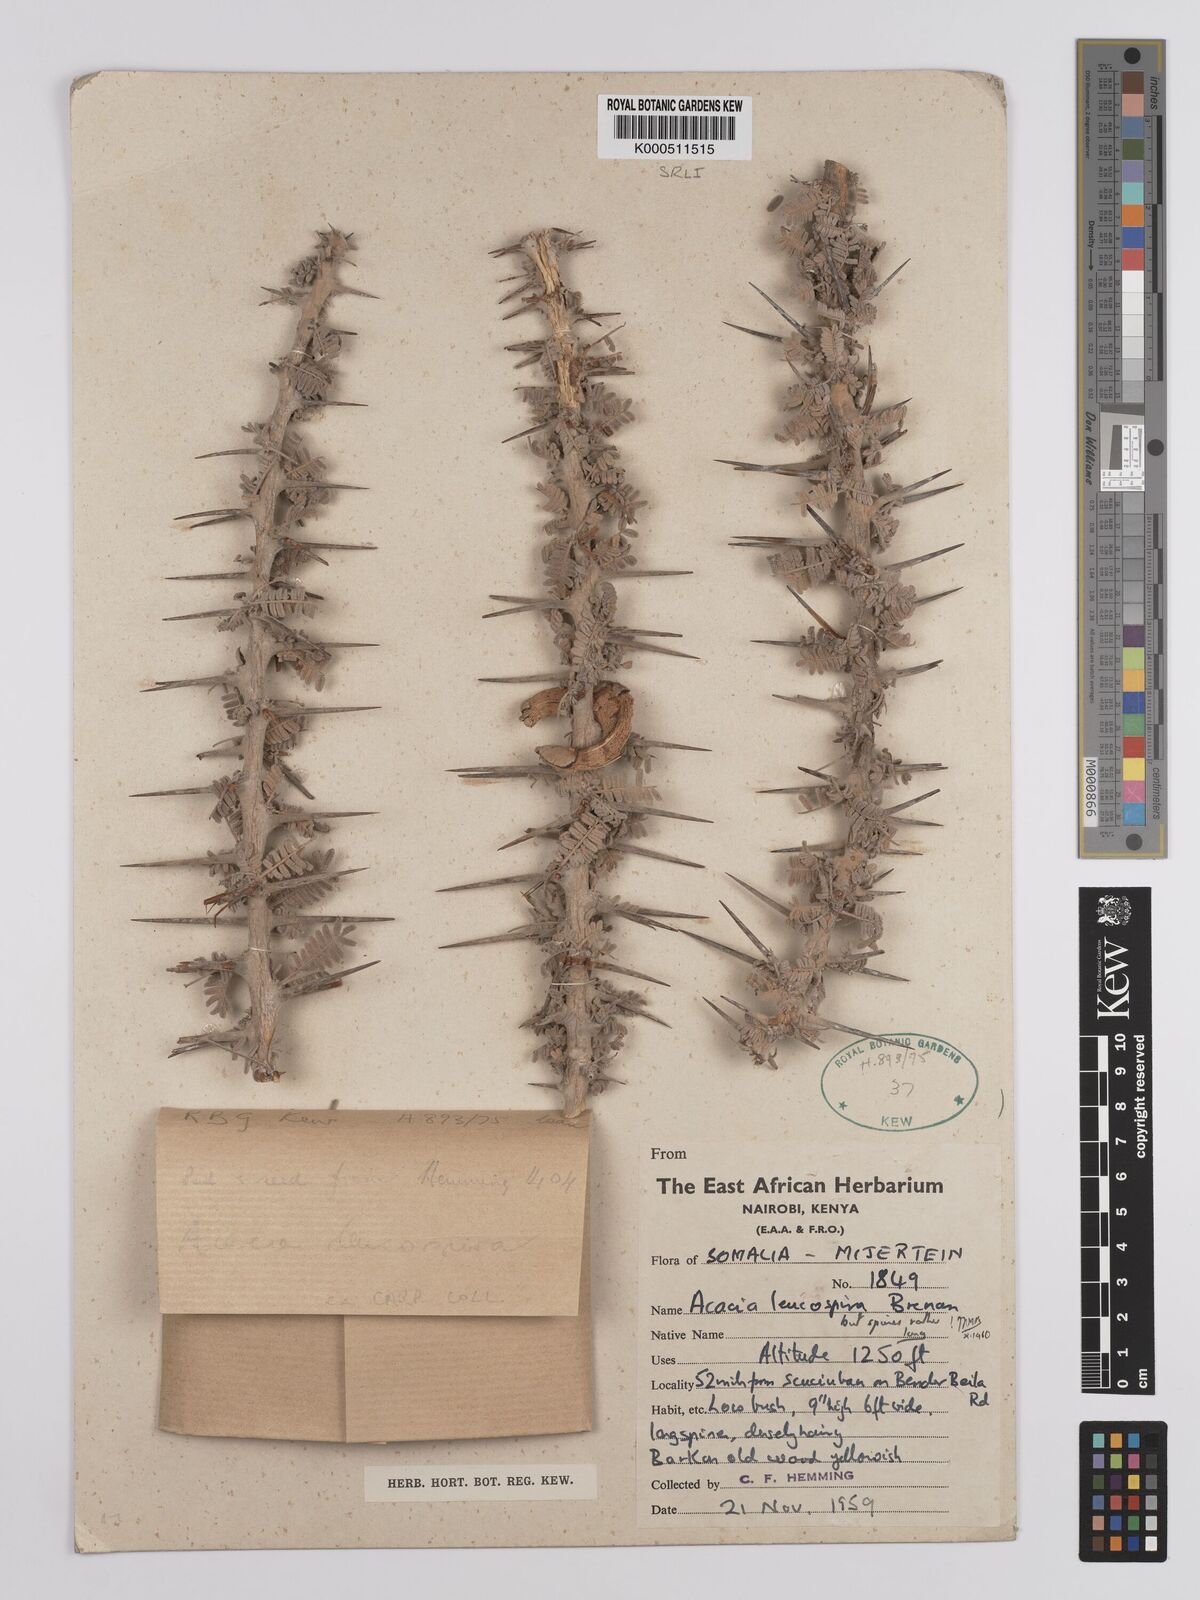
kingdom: Plantae
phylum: Tracheophyta
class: Magnoliopsida
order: Fabales
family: Fabaceae
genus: Vachellia
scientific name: Vachellia leucospira
